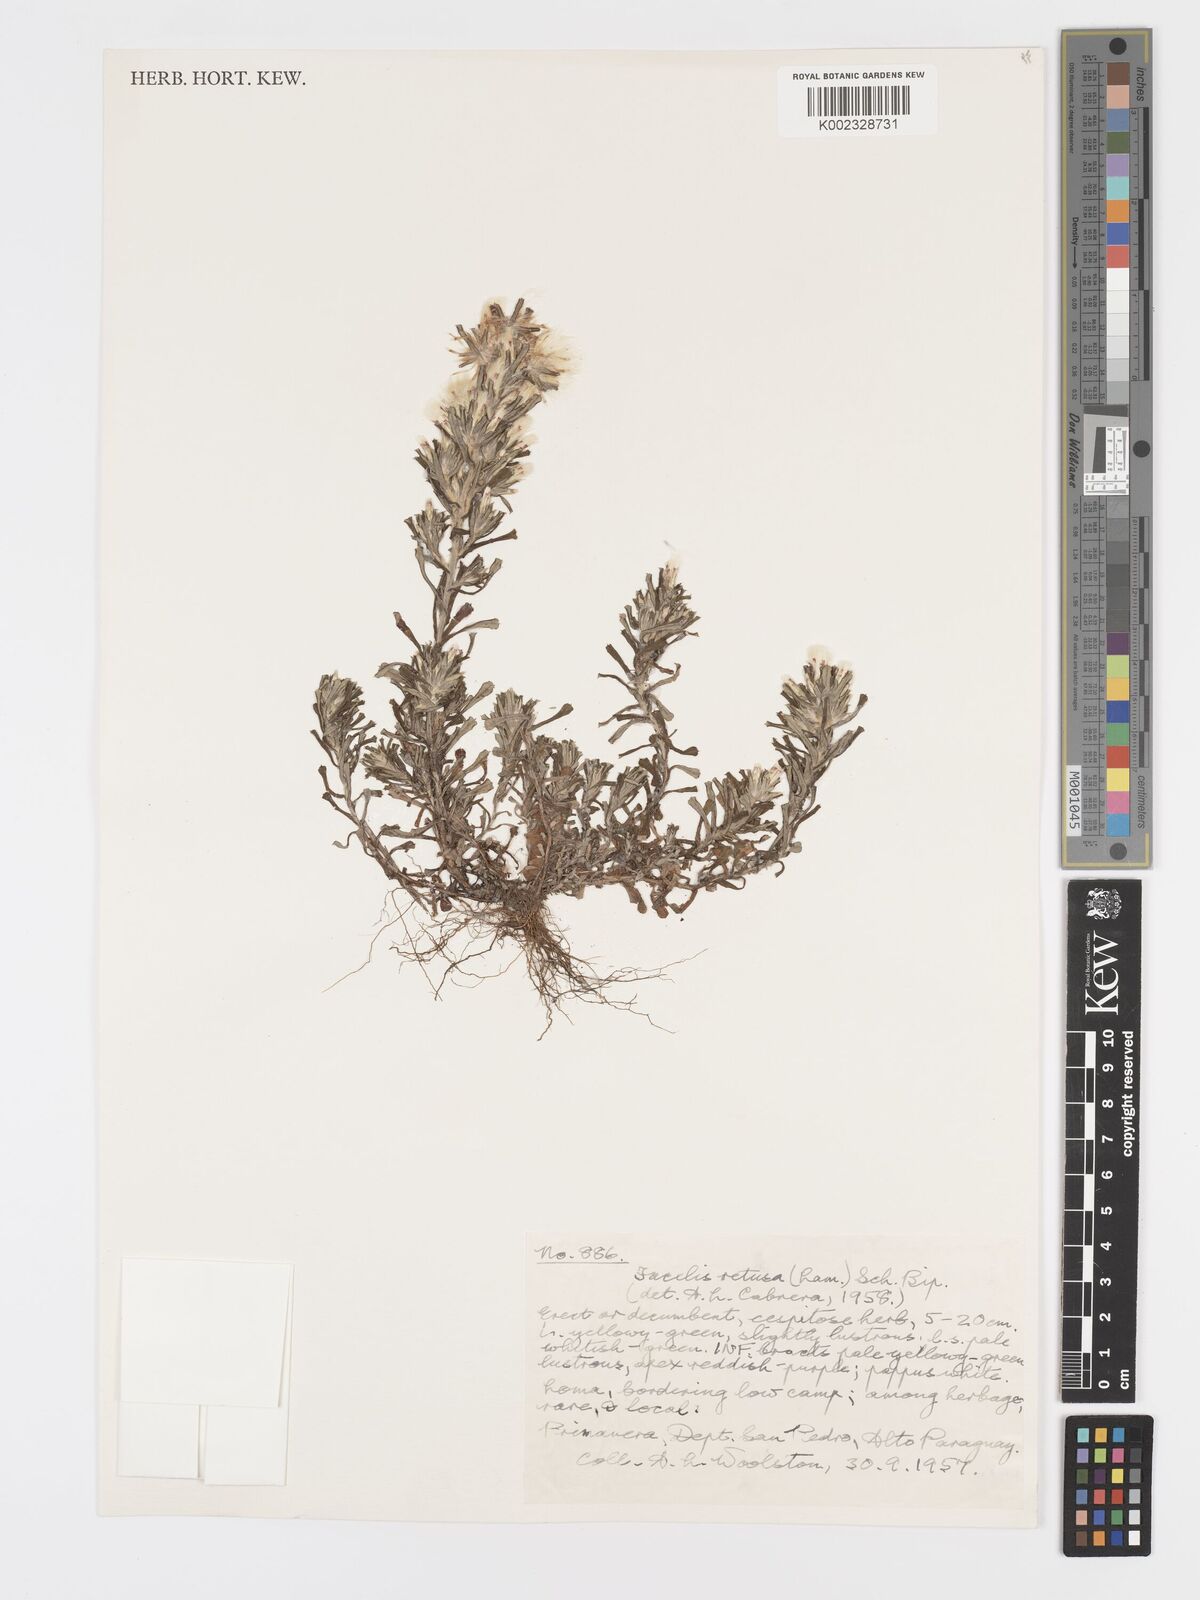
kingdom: Plantae
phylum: Tracheophyta
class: Magnoliopsida
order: Asterales
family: Asteraceae
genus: Facelis
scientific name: Facelis retusa
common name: Annual trampweed
